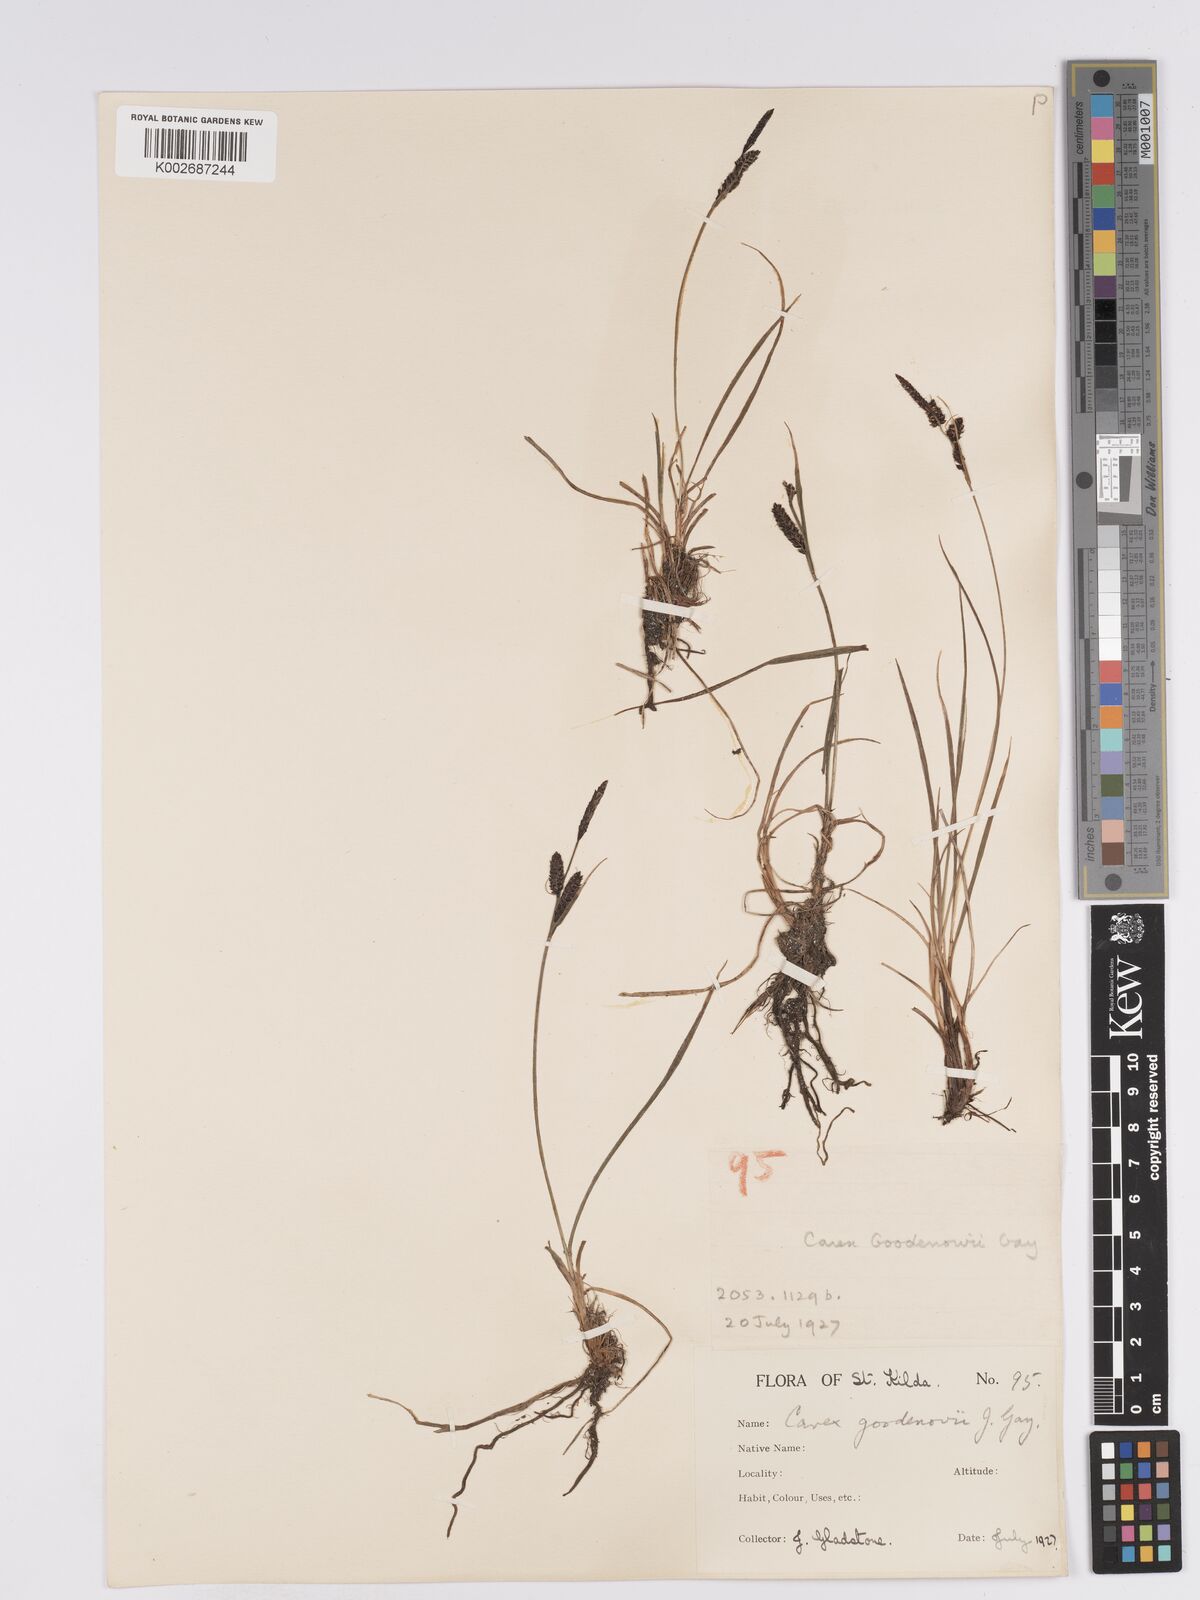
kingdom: Plantae
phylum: Tracheophyta
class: Liliopsida
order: Poales
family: Cyperaceae
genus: Carex
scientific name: Carex nigra
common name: Common sedge
